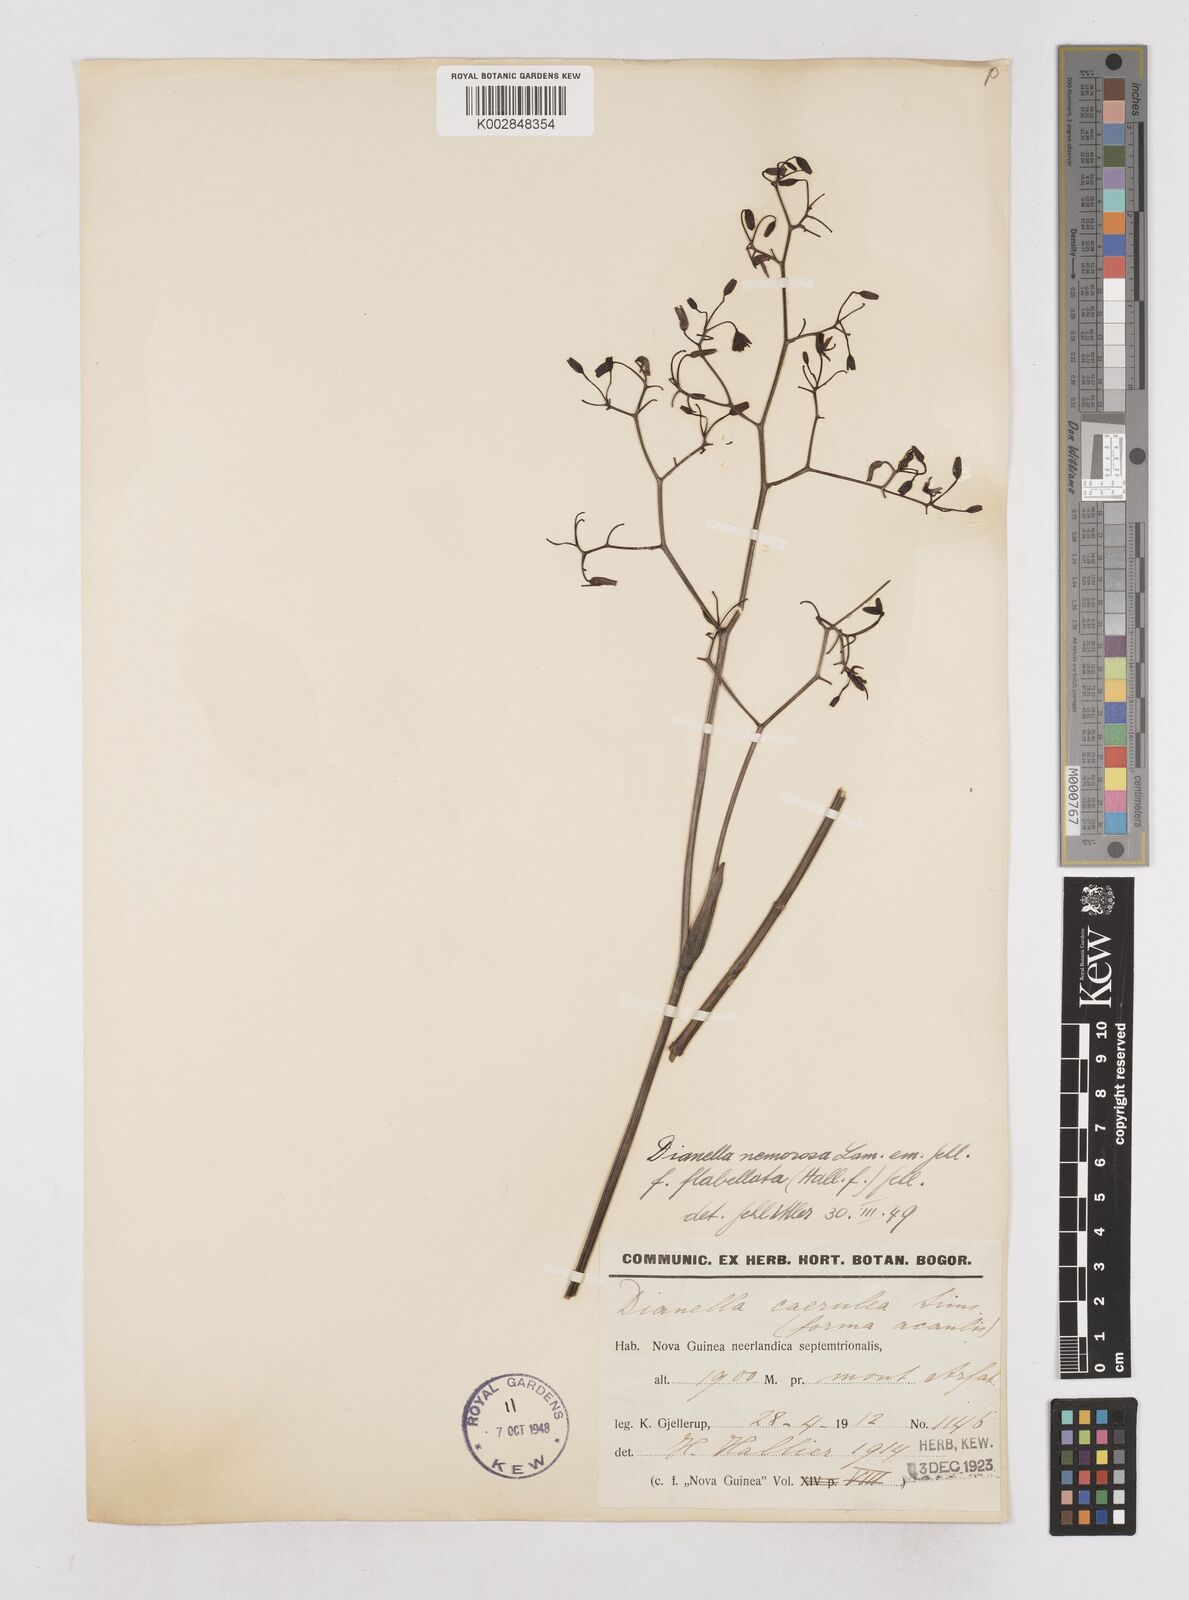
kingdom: Plantae
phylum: Tracheophyta
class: Liliopsida
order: Asparagales
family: Asphodelaceae
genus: Dianella
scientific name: Dianella ensifolia
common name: New zealand lilyplant
